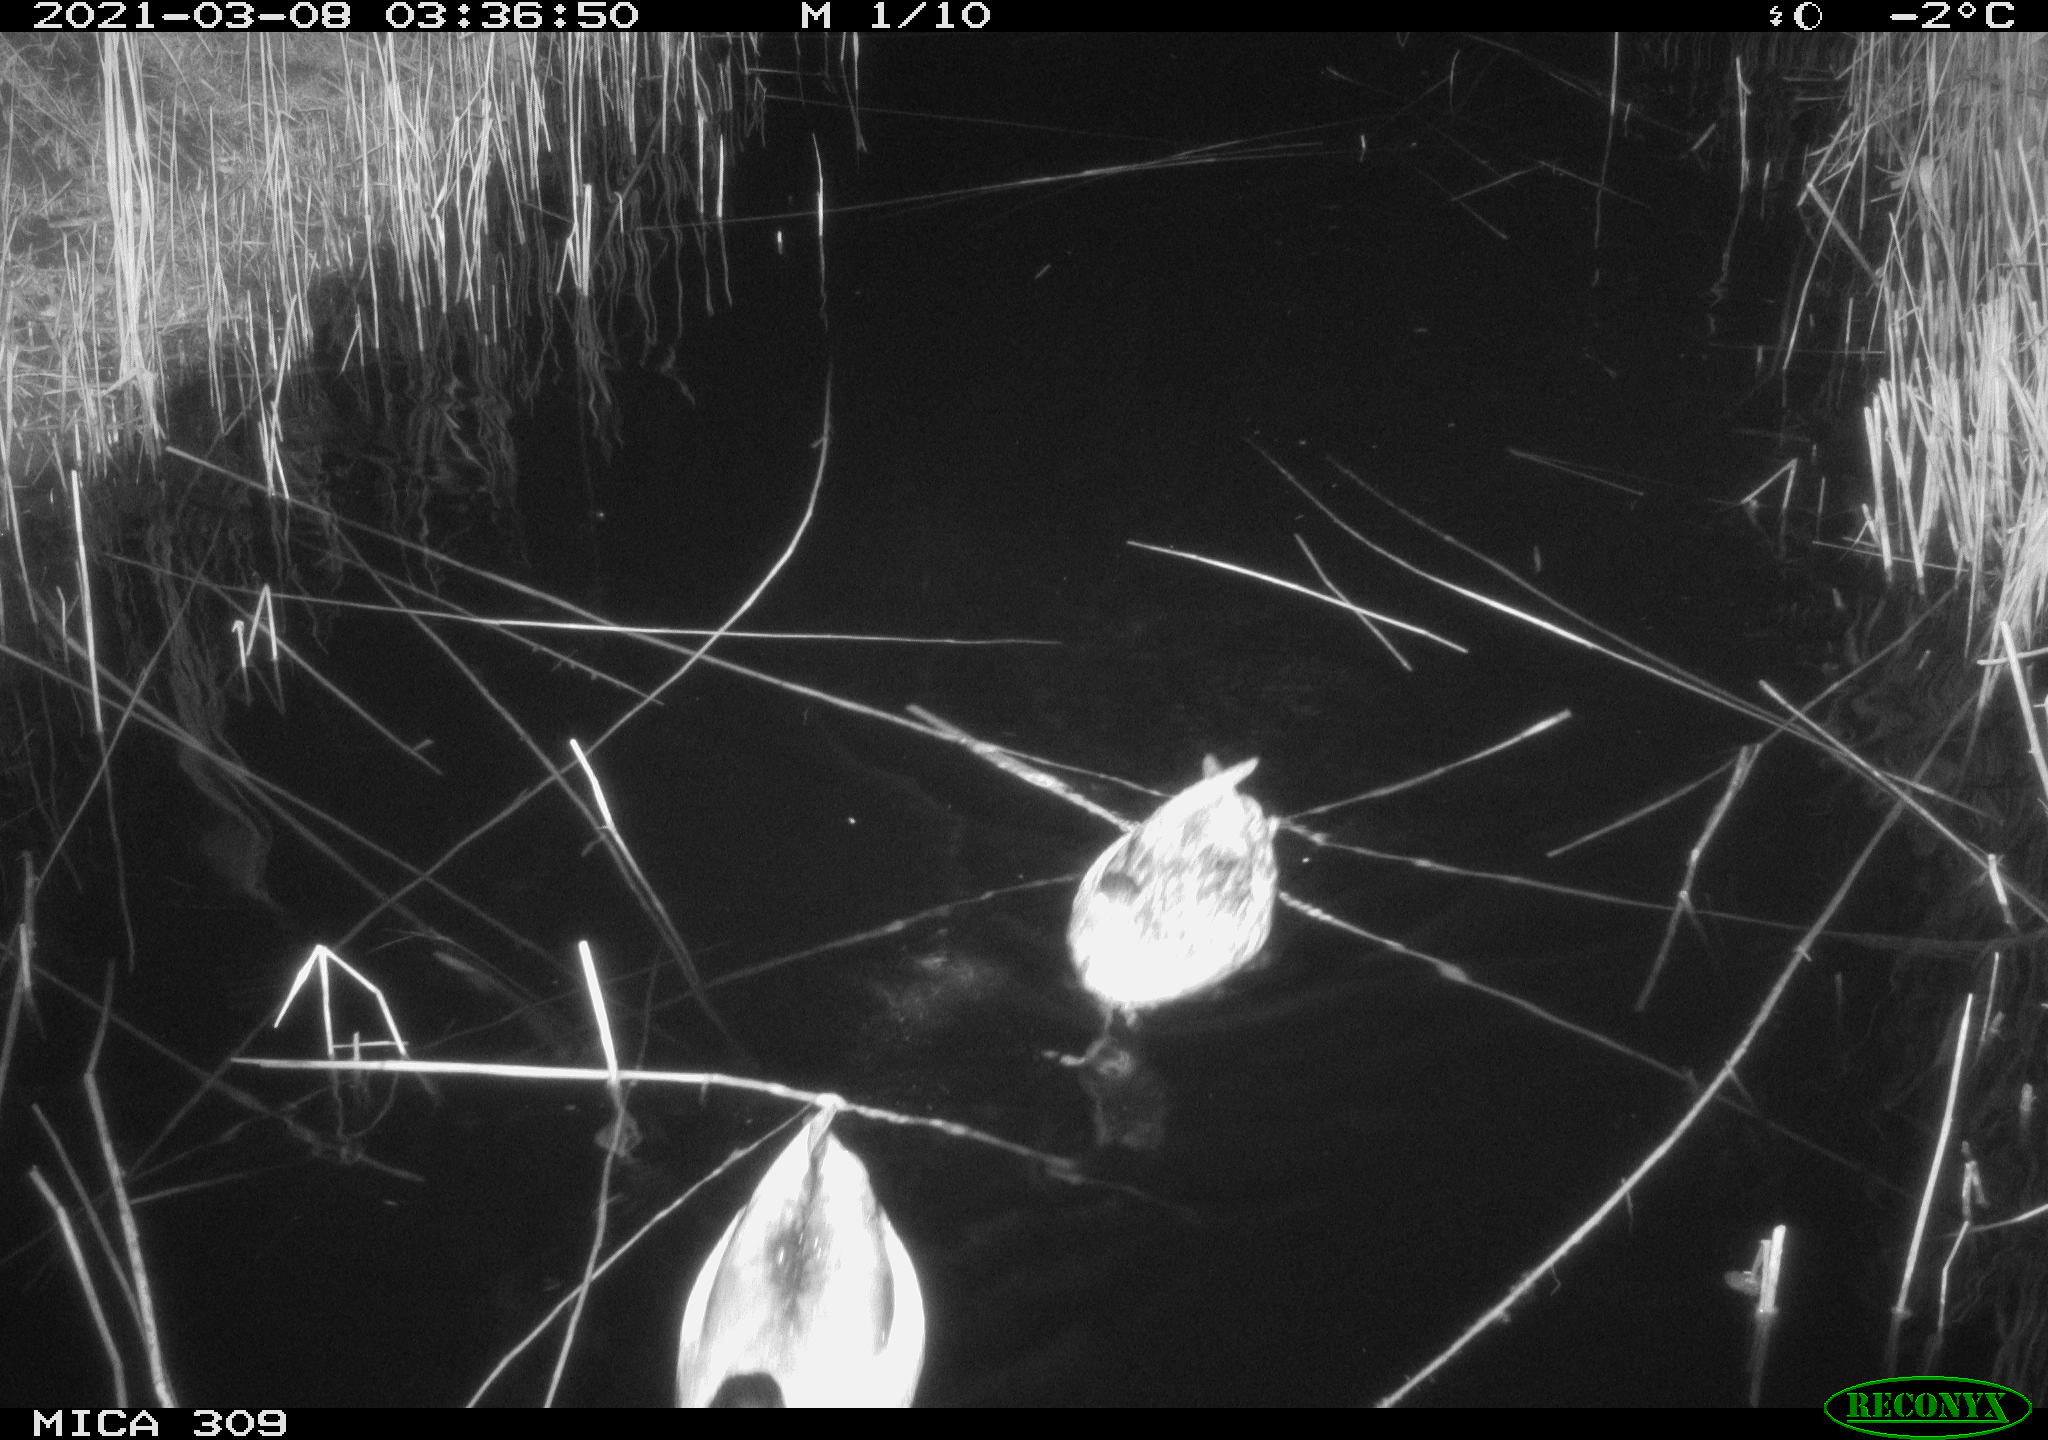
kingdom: Animalia
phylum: Chordata
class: Aves
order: Anseriformes
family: Anatidae
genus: Anas
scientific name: Anas platyrhynchos
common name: Mallard
